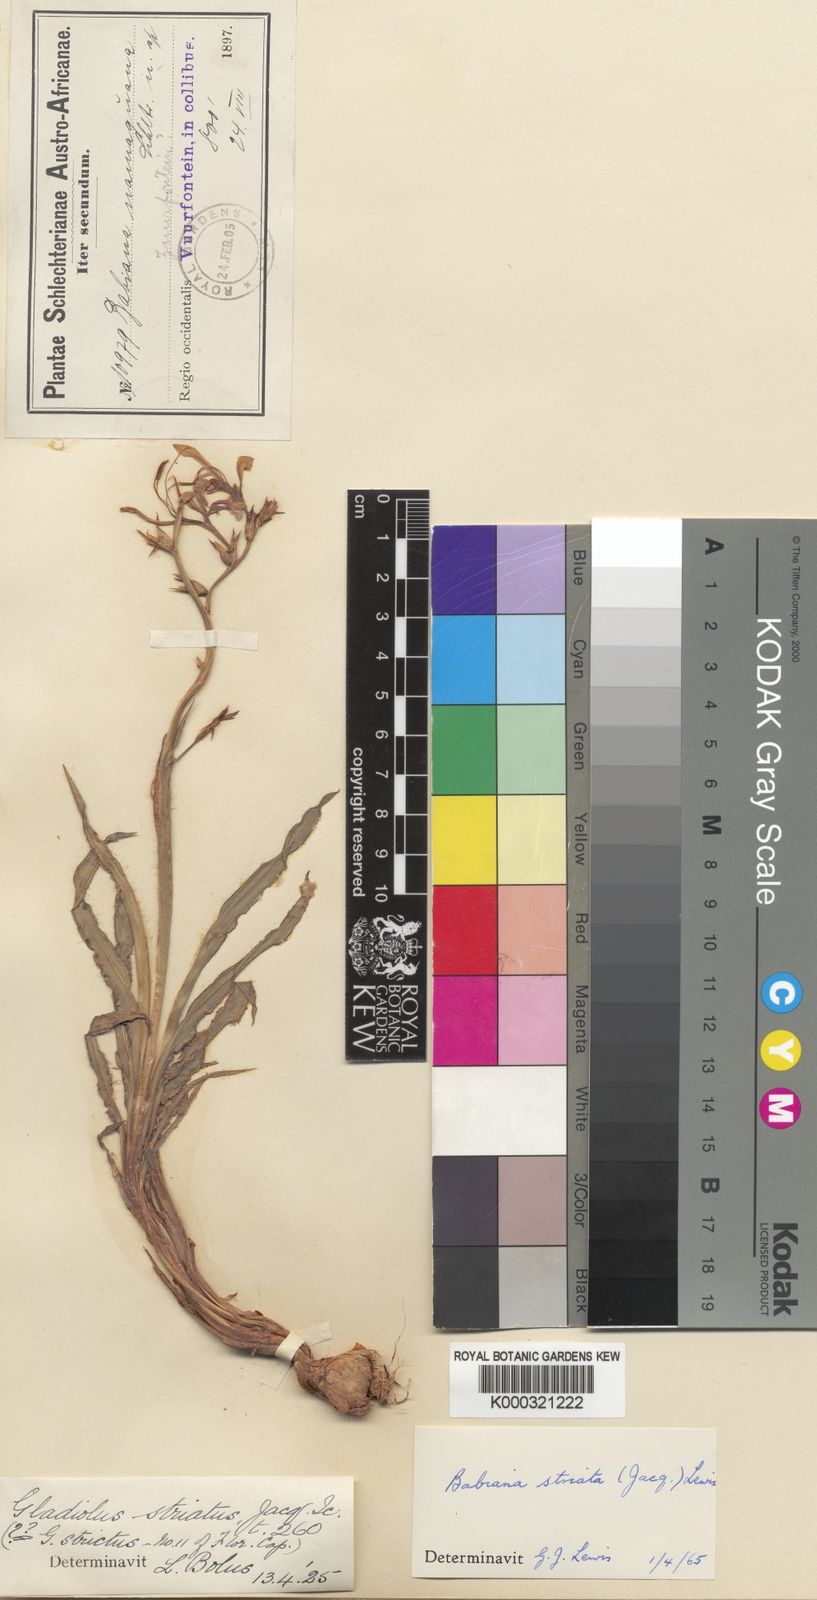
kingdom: Plantae
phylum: Tracheophyta
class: Liliopsida
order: Asparagales
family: Iridaceae
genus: Babiana
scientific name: Babiana striata
